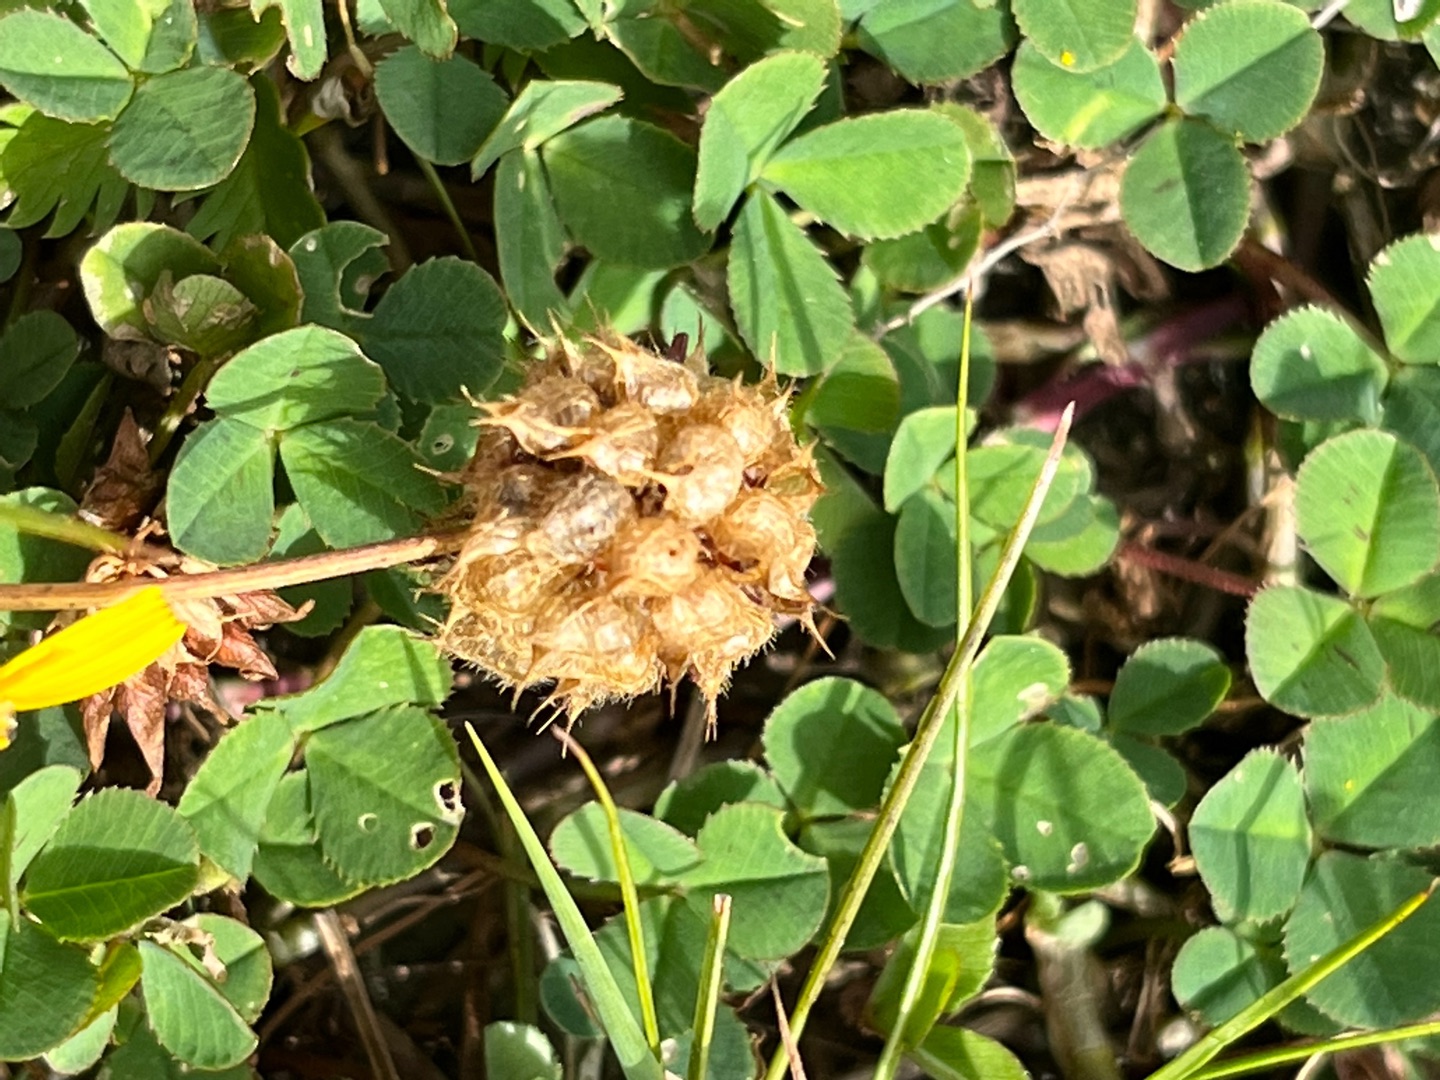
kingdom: Plantae
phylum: Tracheophyta
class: Magnoliopsida
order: Fabales
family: Fabaceae
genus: Trifolium
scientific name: Trifolium fragiferum
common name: Jordbær-kløver
